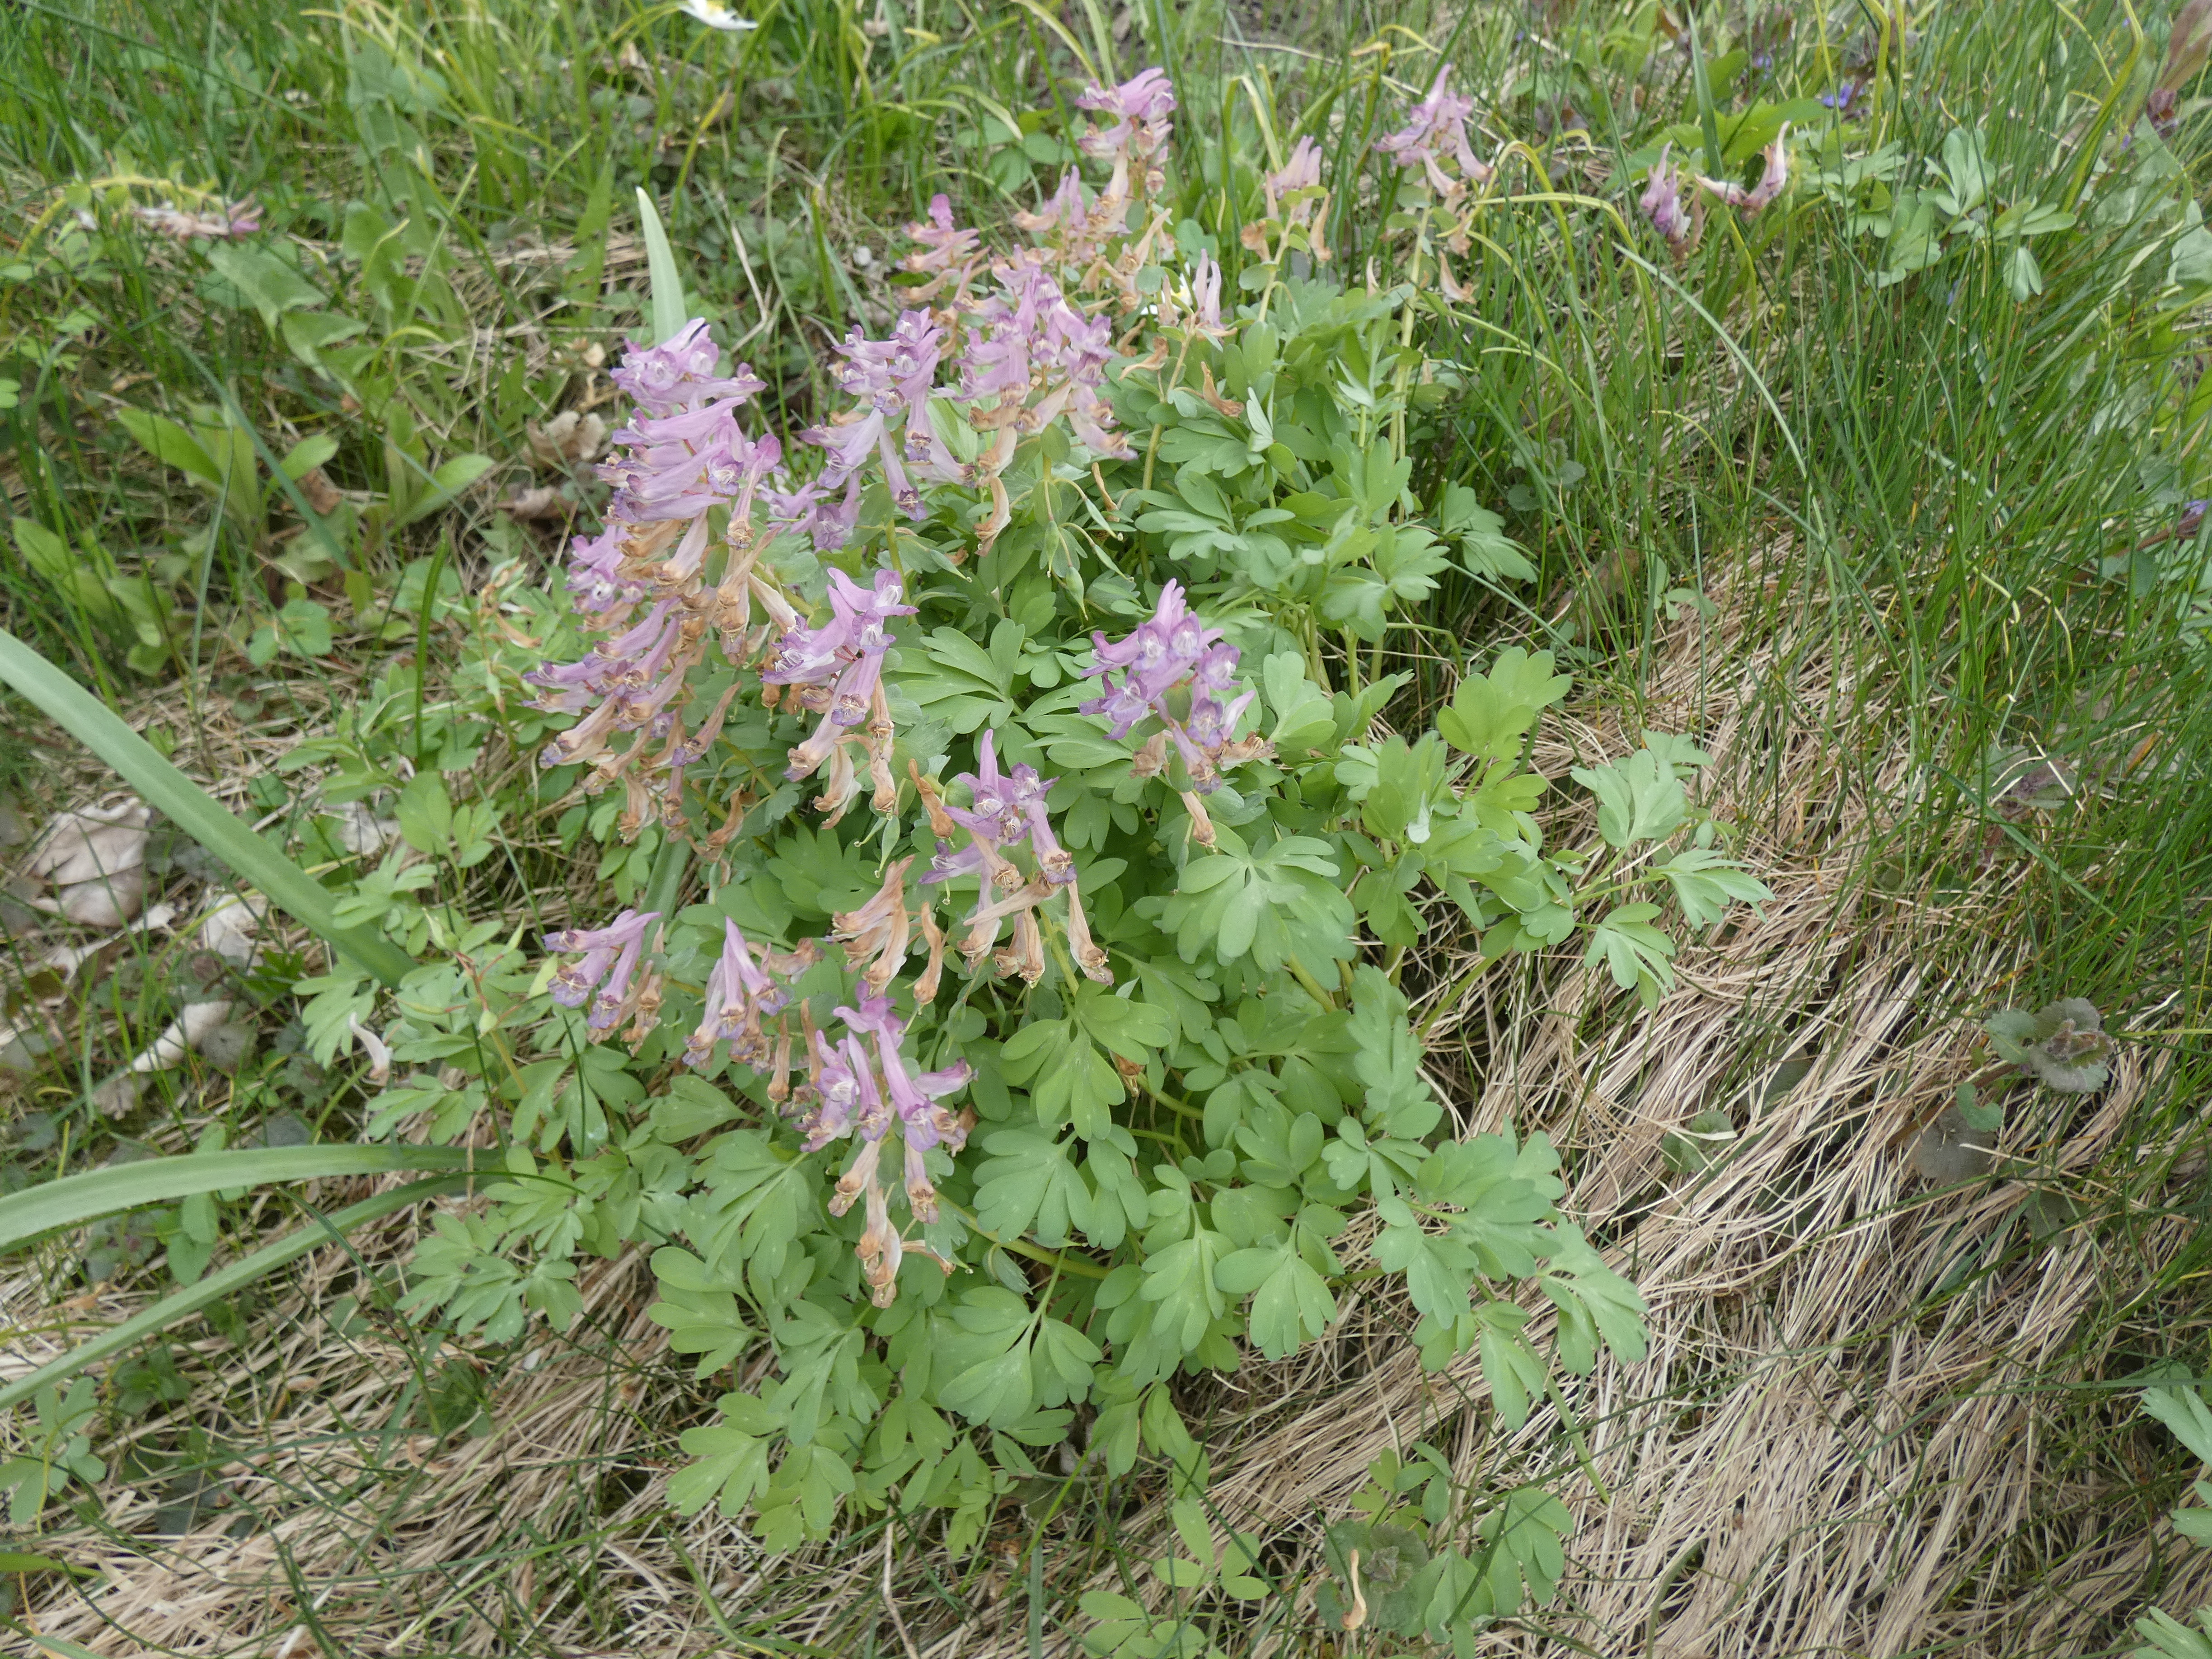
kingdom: Plantae
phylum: Tracheophyta
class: Magnoliopsida
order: Ranunculales
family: Papaveraceae
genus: Corydalis
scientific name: Corydalis solida
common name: Langstilket lærkespore
